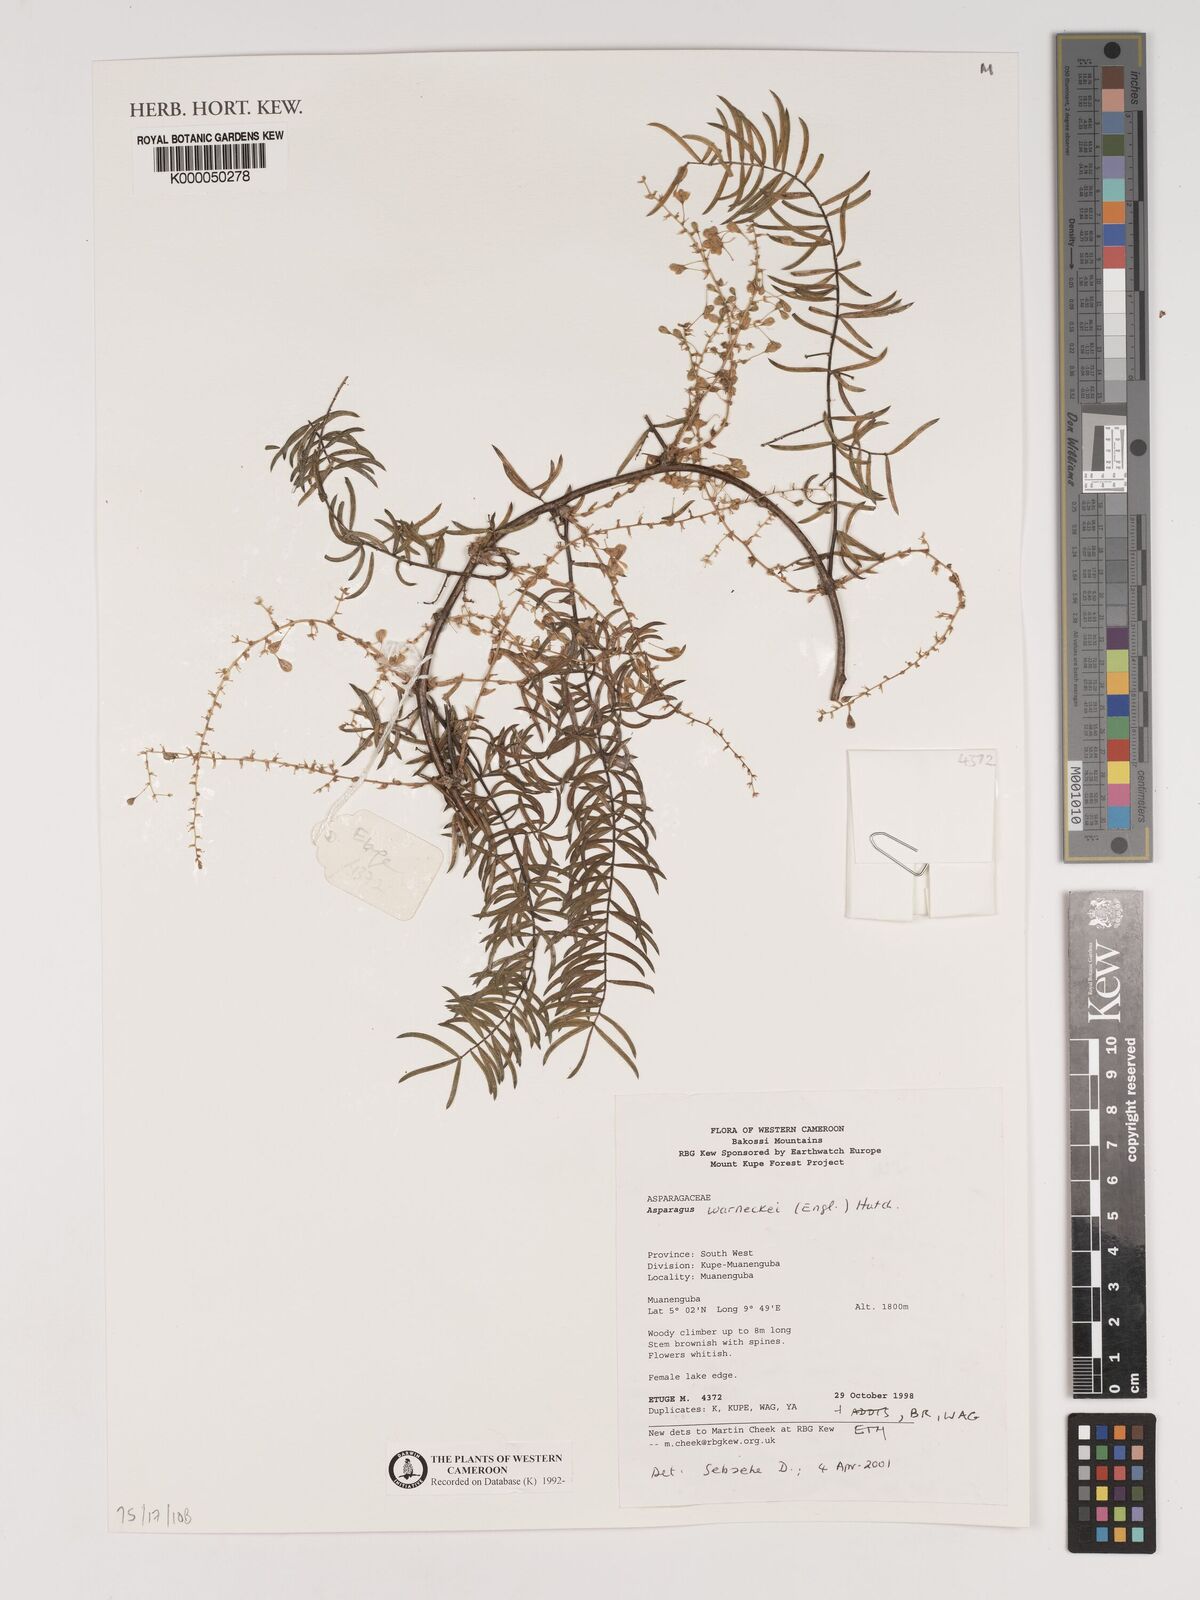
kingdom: Plantae
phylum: Tracheophyta
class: Liliopsida
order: Asparagales
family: Asparagaceae
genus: Asparagus
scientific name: Asparagus warneckei
